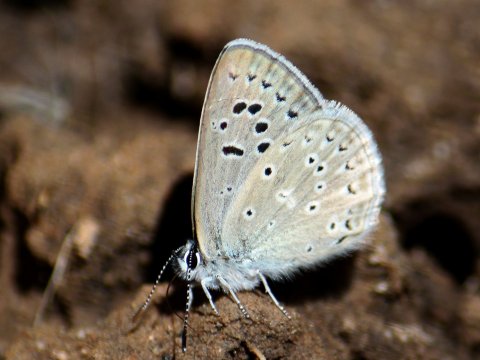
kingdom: Animalia
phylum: Arthropoda
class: Insecta
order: Lepidoptera
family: Lycaenidae
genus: Icaricia
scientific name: Icaricia icarioides
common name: Boisduval's Blue
